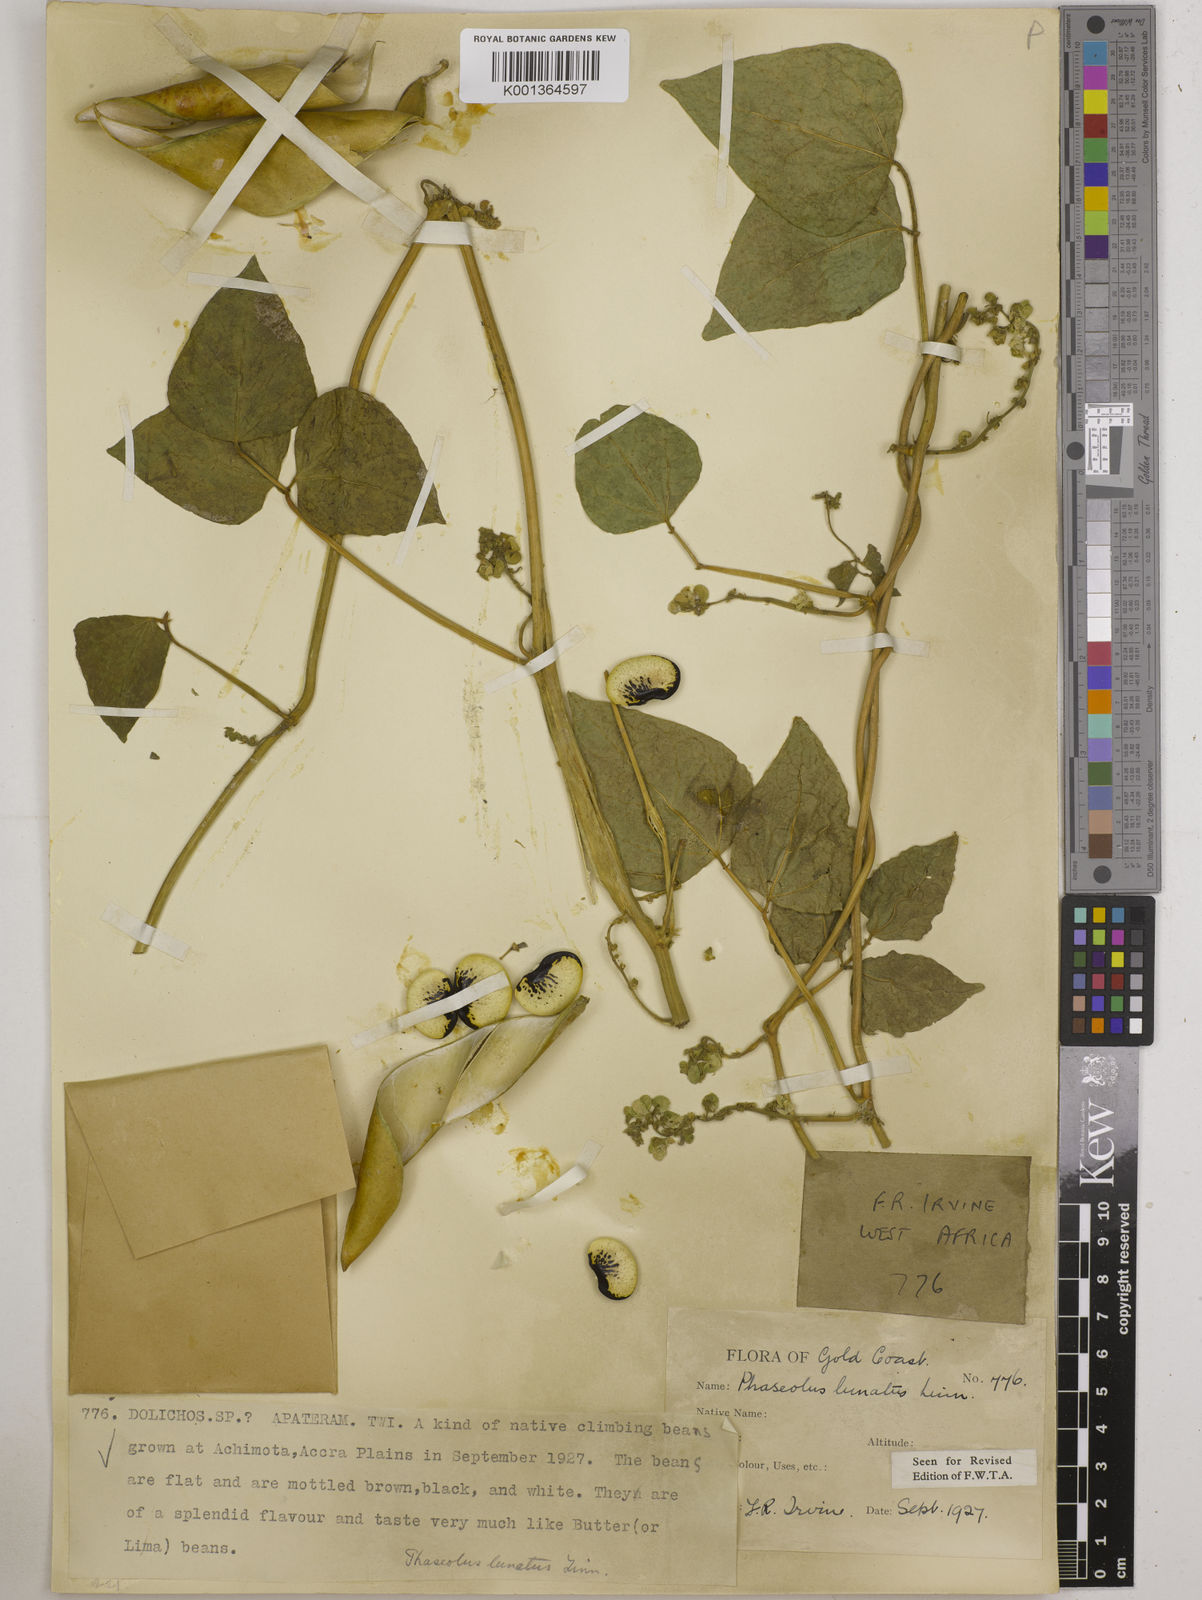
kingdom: Plantae
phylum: Tracheophyta
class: Magnoliopsida
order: Fabales
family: Fabaceae
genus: Phaseolus
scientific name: Phaseolus lunatus
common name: Sieva bean
